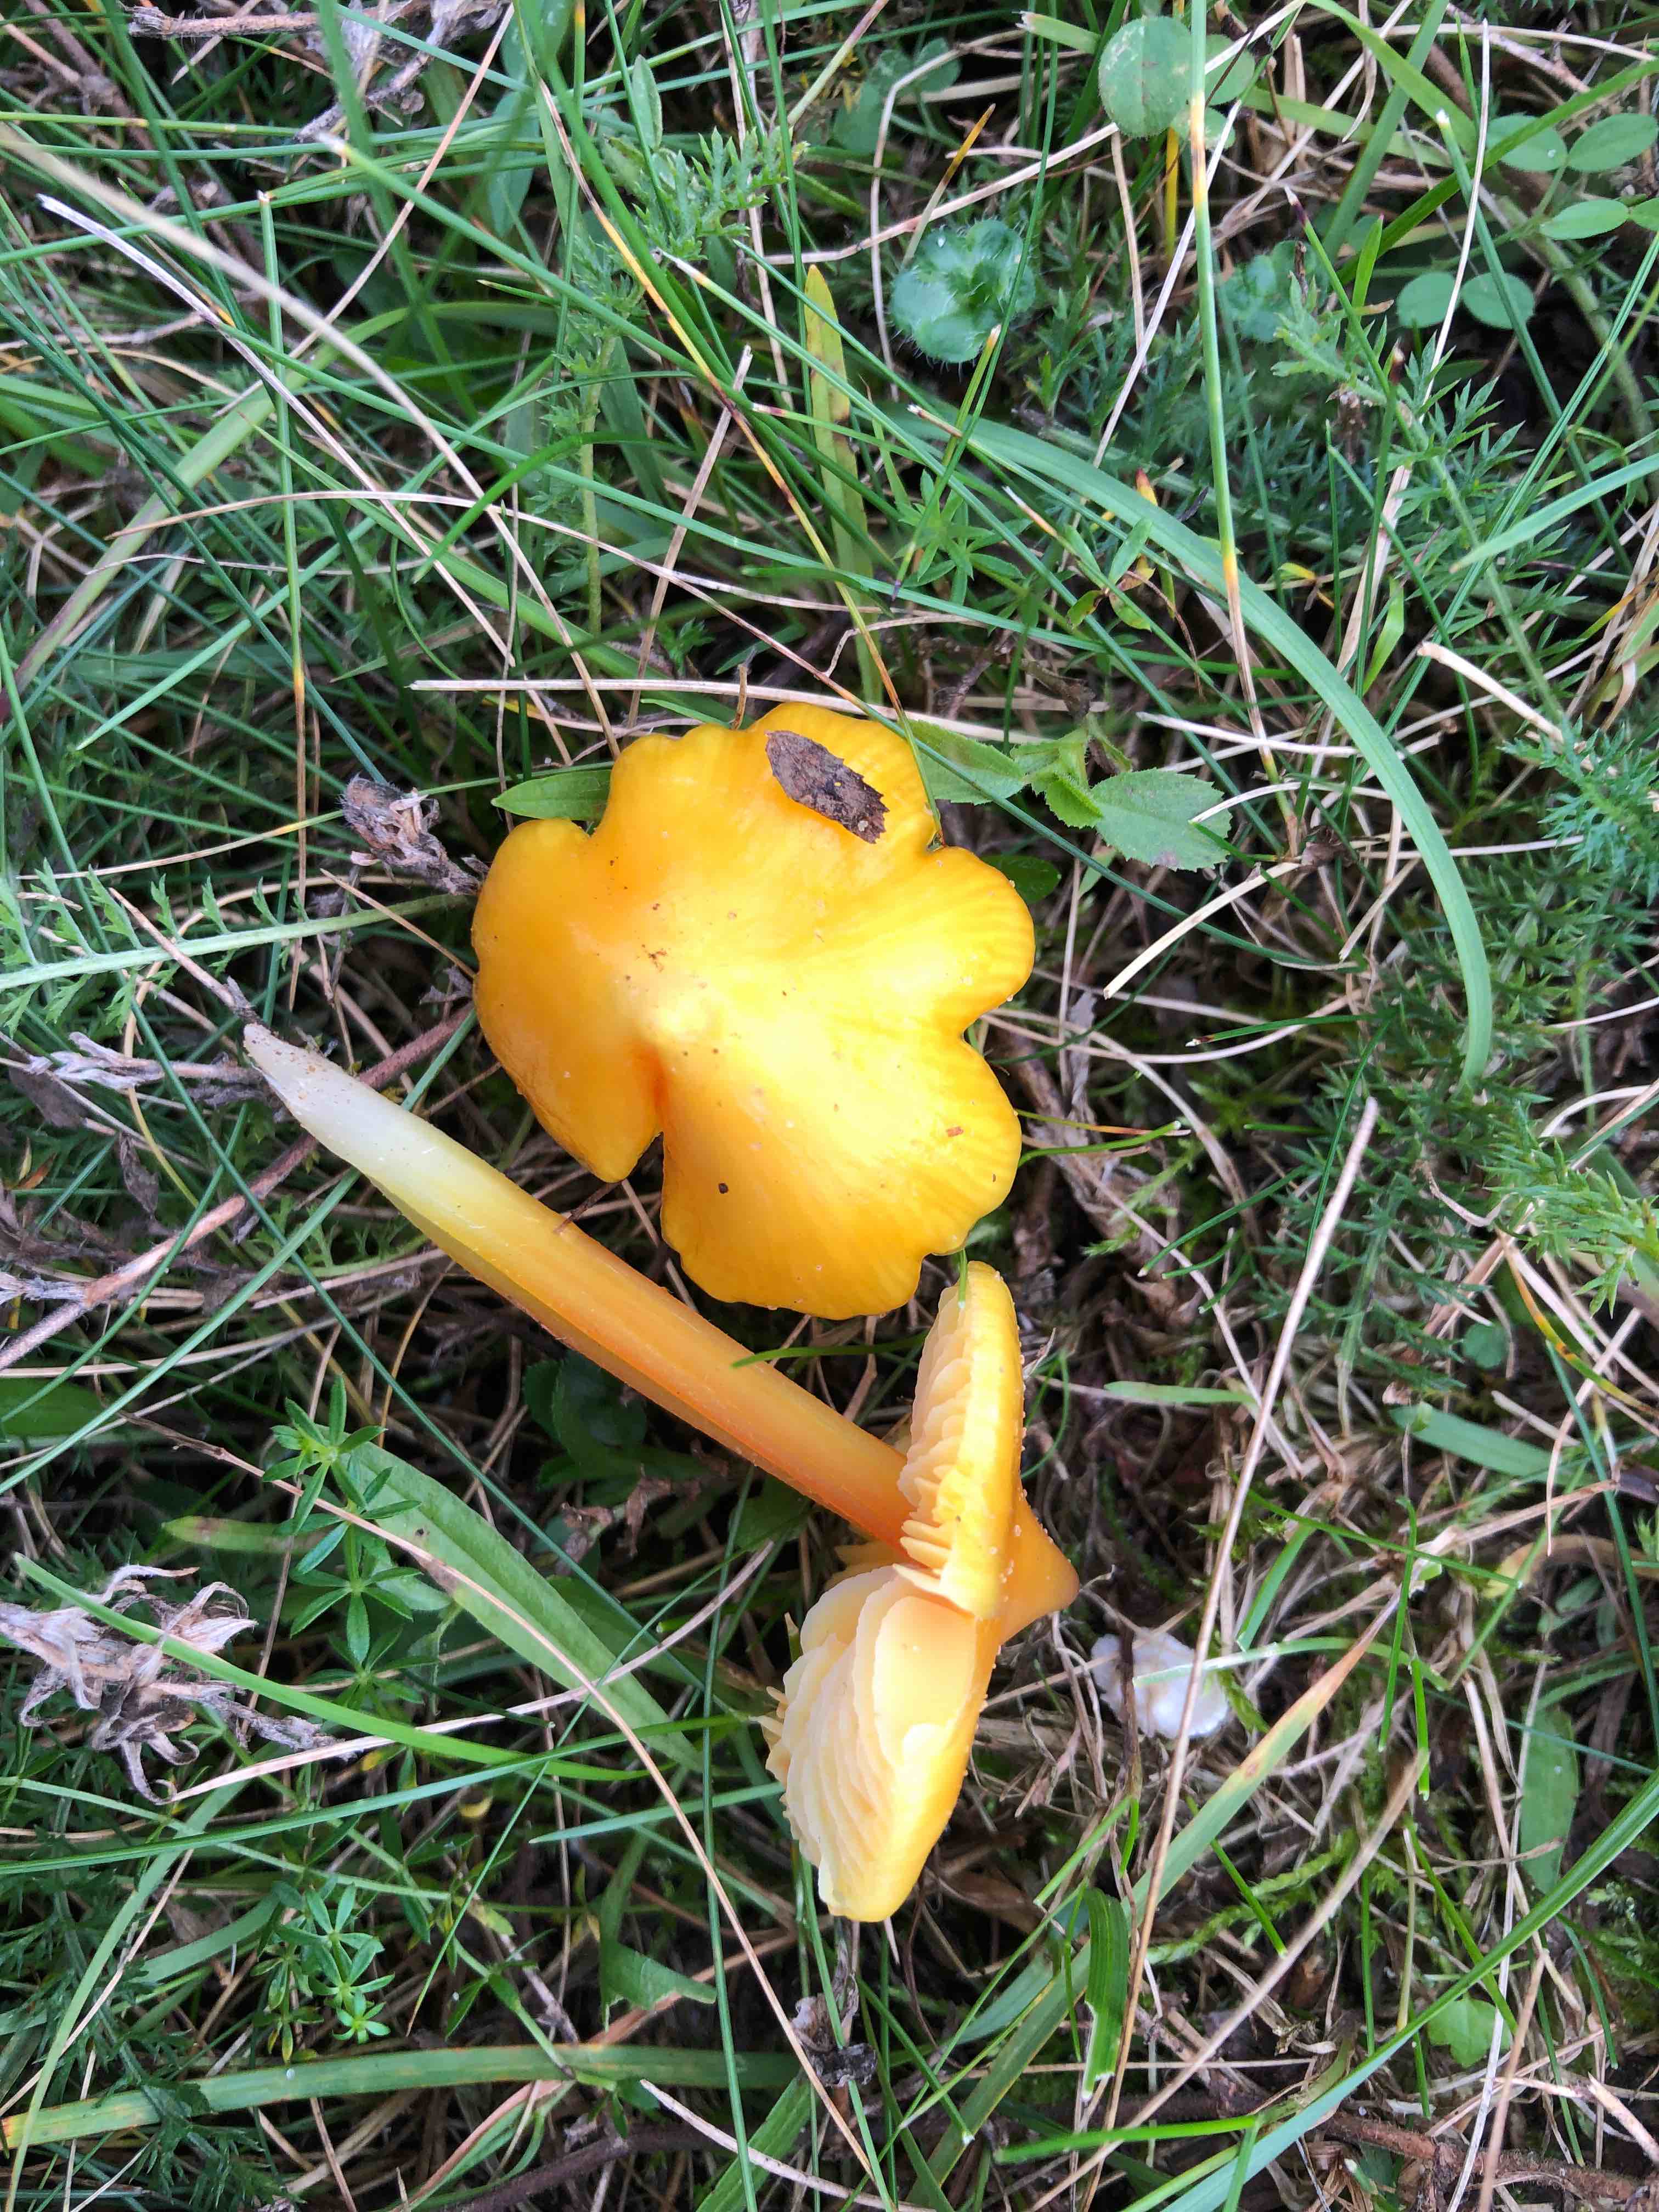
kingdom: Fungi
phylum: Basidiomycota
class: Agaricomycetes
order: Agaricales
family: Hygrophoraceae
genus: Hygrocybe
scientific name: Hygrocybe acutoconica
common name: spidspuklet vokshat
